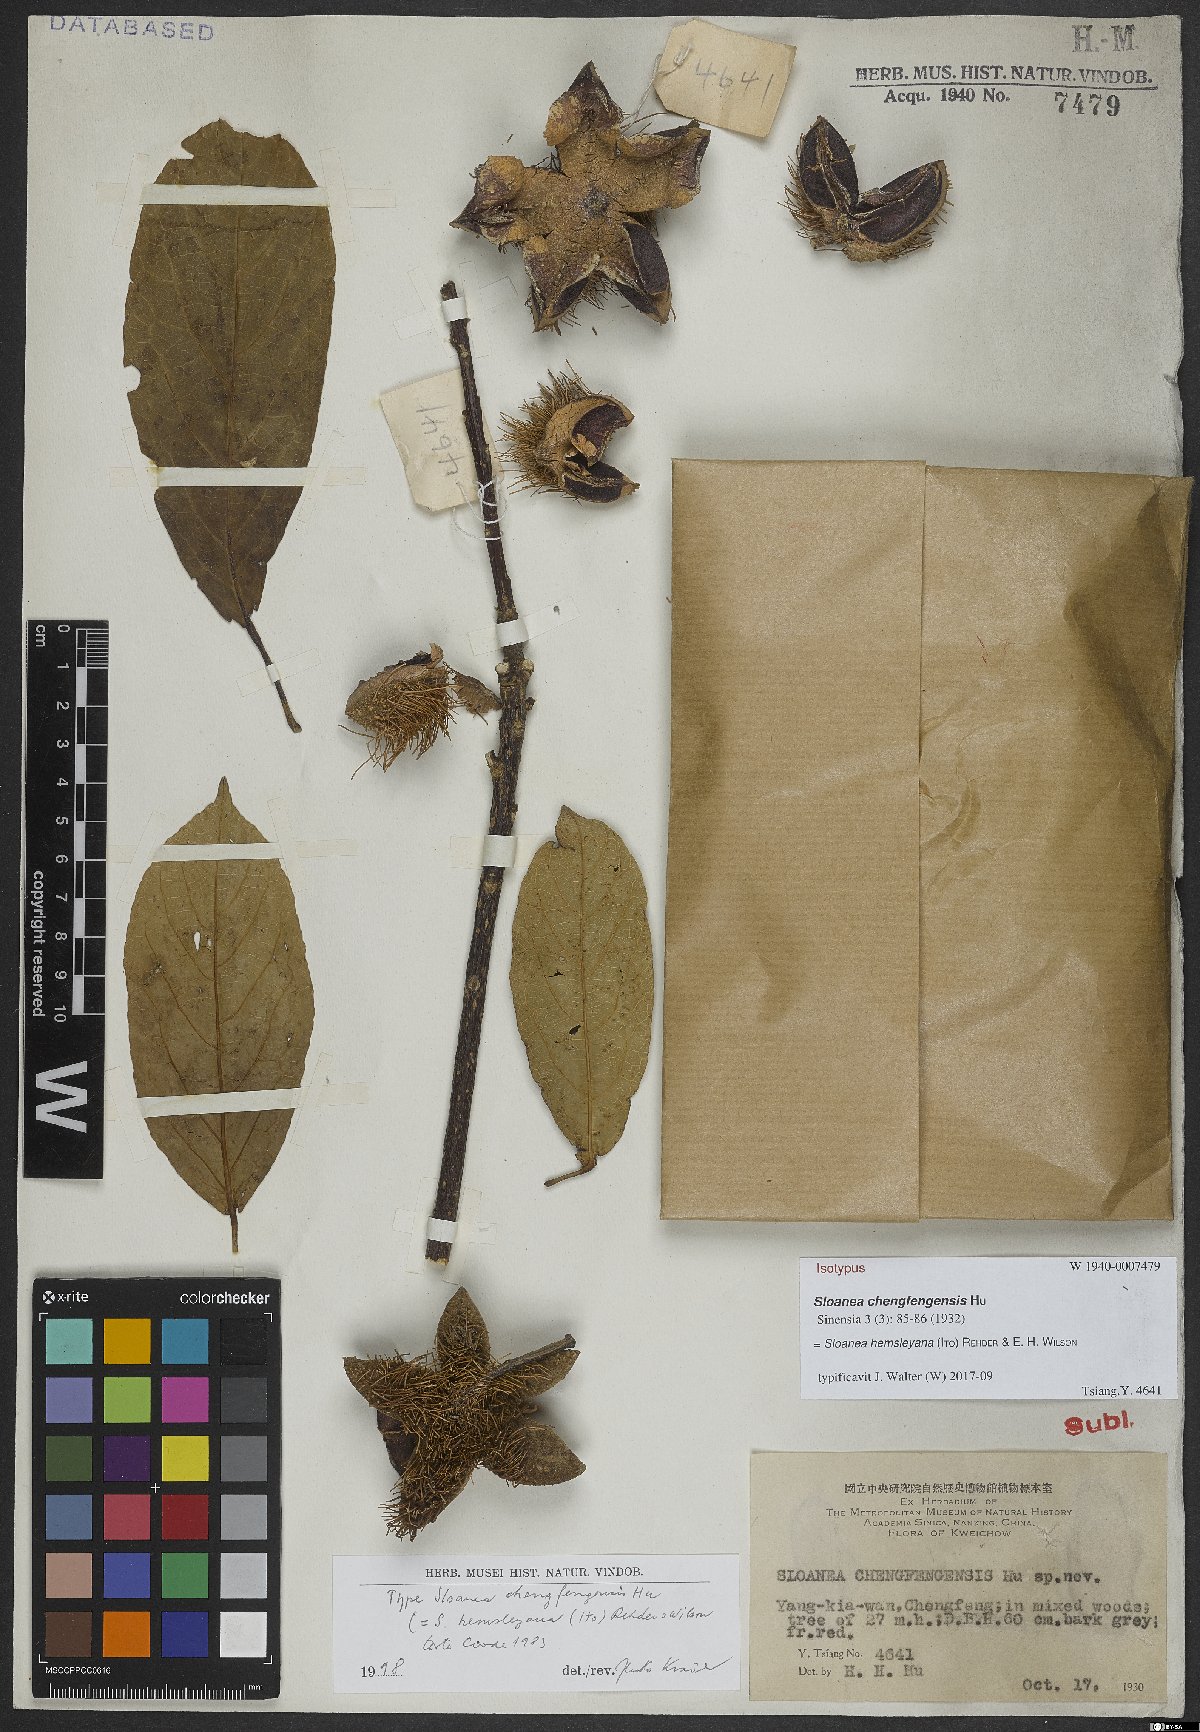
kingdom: Plantae
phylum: Tracheophyta
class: Magnoliopsida
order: Oxalidales
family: Elaeocarpaceae
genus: Sloanea
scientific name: Sloanea hemsleyana
